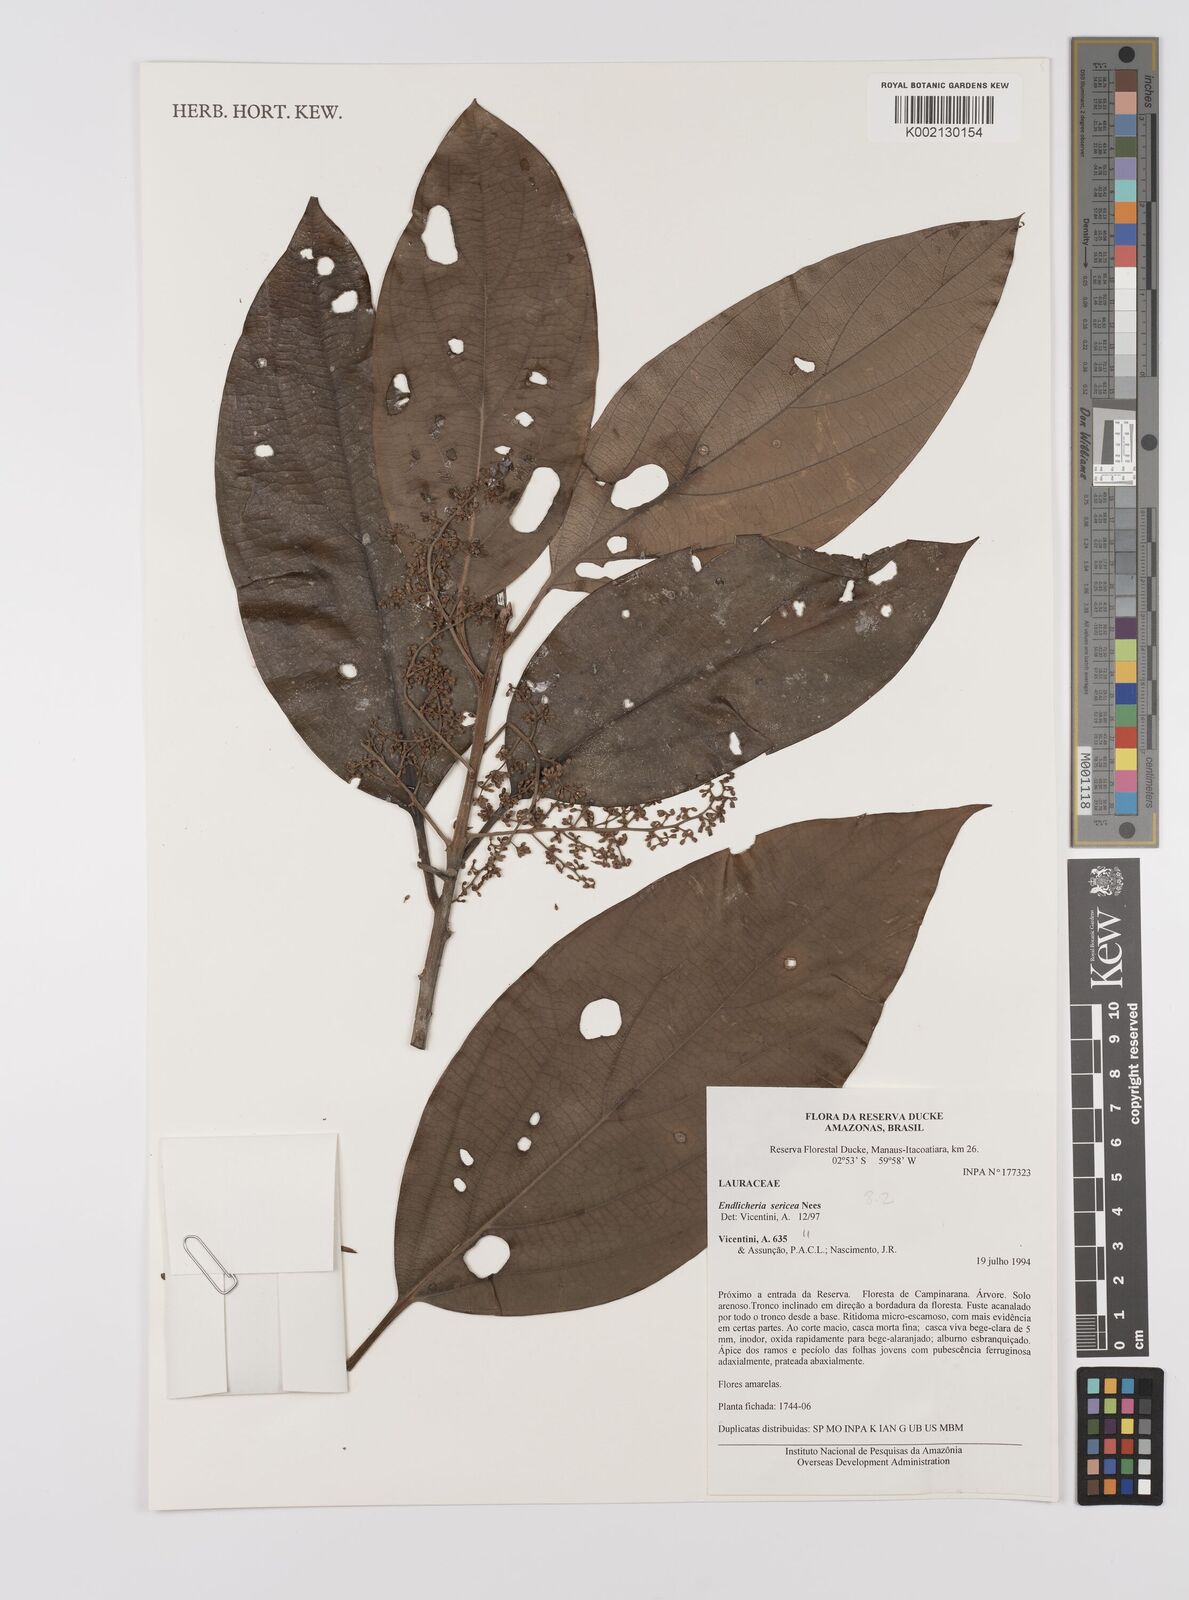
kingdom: Plantae
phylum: Tracheophyta
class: Magnoliopsida
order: Laurales
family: Lauraceae
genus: Endlicheria
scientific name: Endlicheria sericea
